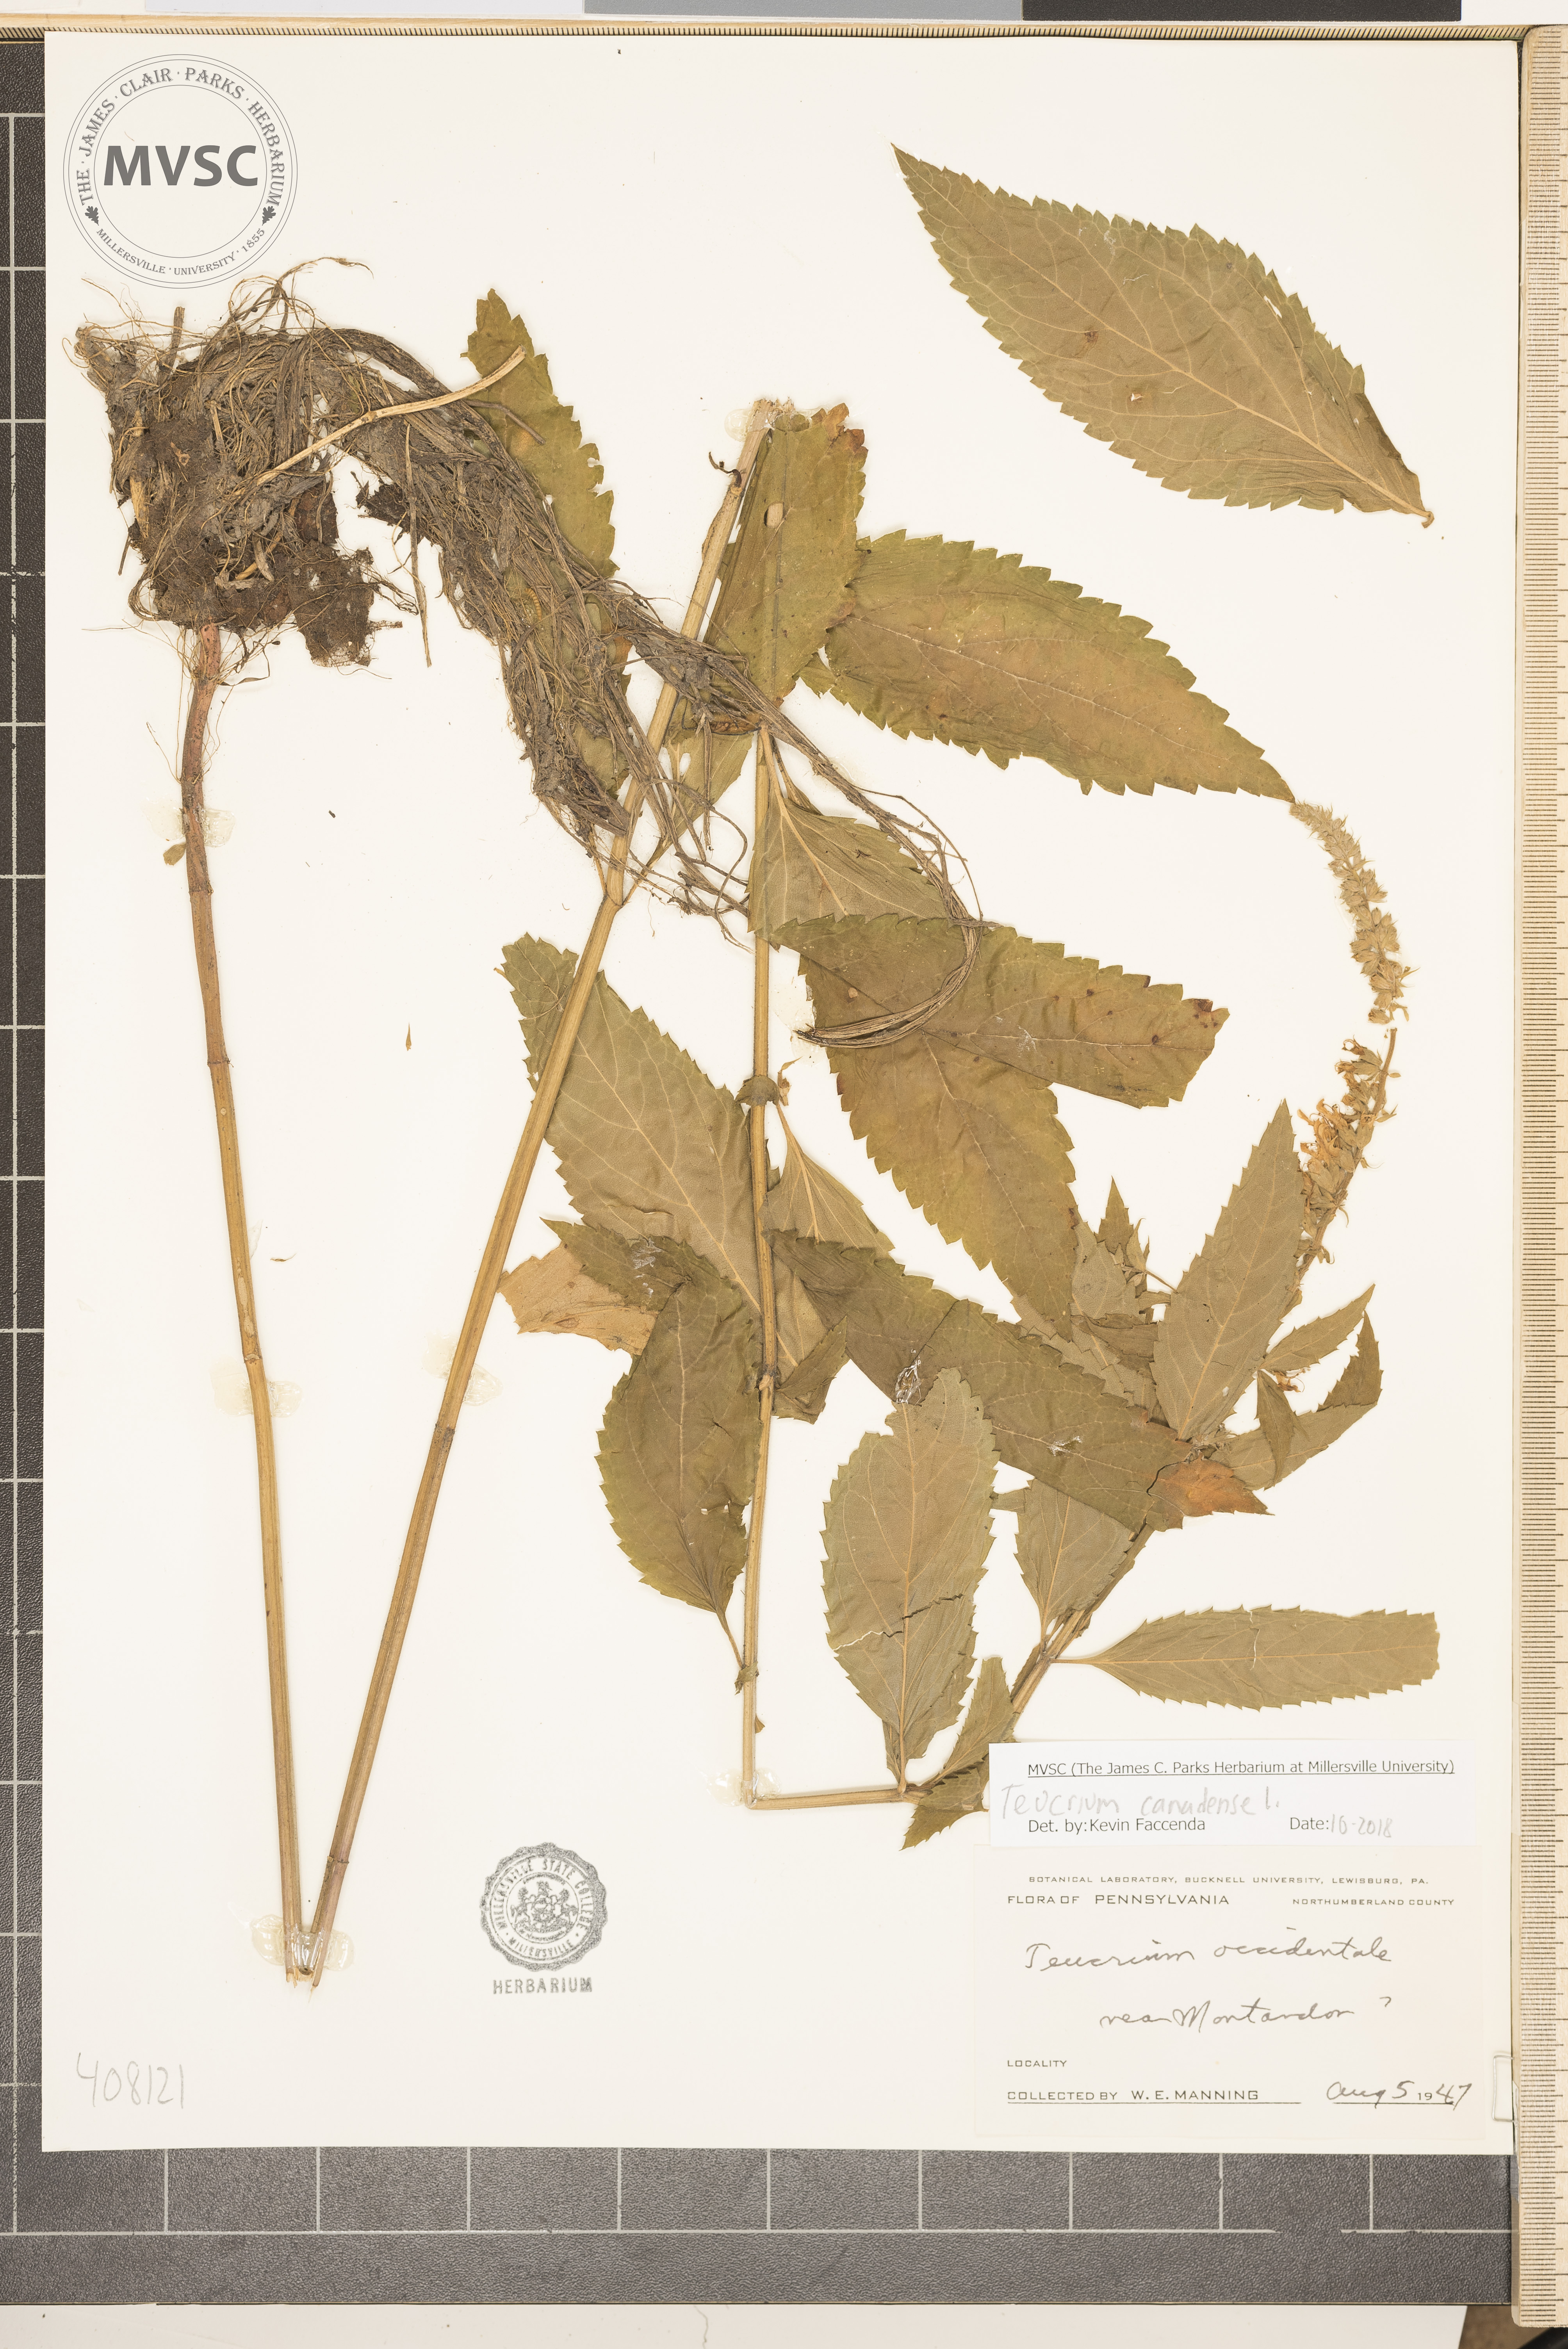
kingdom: Plantae
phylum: Tracheophyta
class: Magnoliopsida
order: Lamiales
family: Lamiaceae
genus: Teucrium
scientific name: Teucrium canadense
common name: American germander
